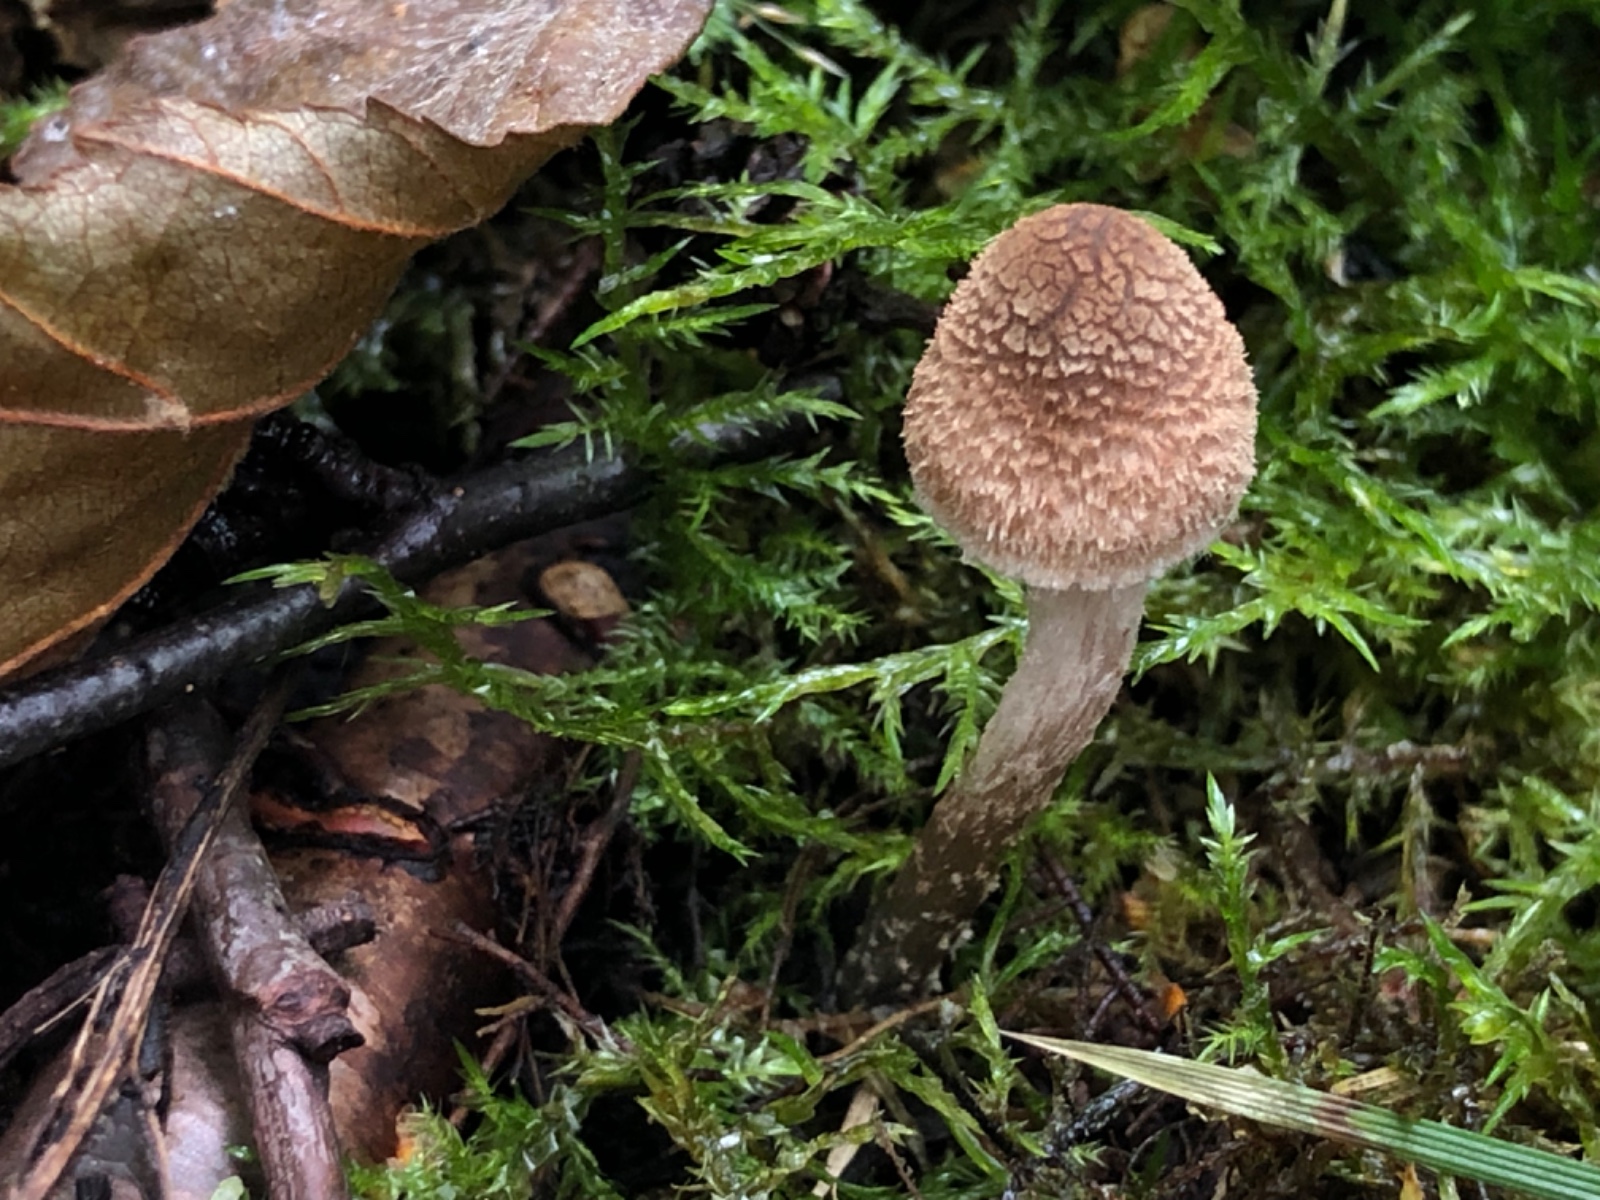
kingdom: Fungi
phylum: Basidiomycota
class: Agaricomycetes
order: Agaricales
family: Inocybaceae
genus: Inosperma
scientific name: Inosperma calamistratum
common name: grønfodet trævlhat
